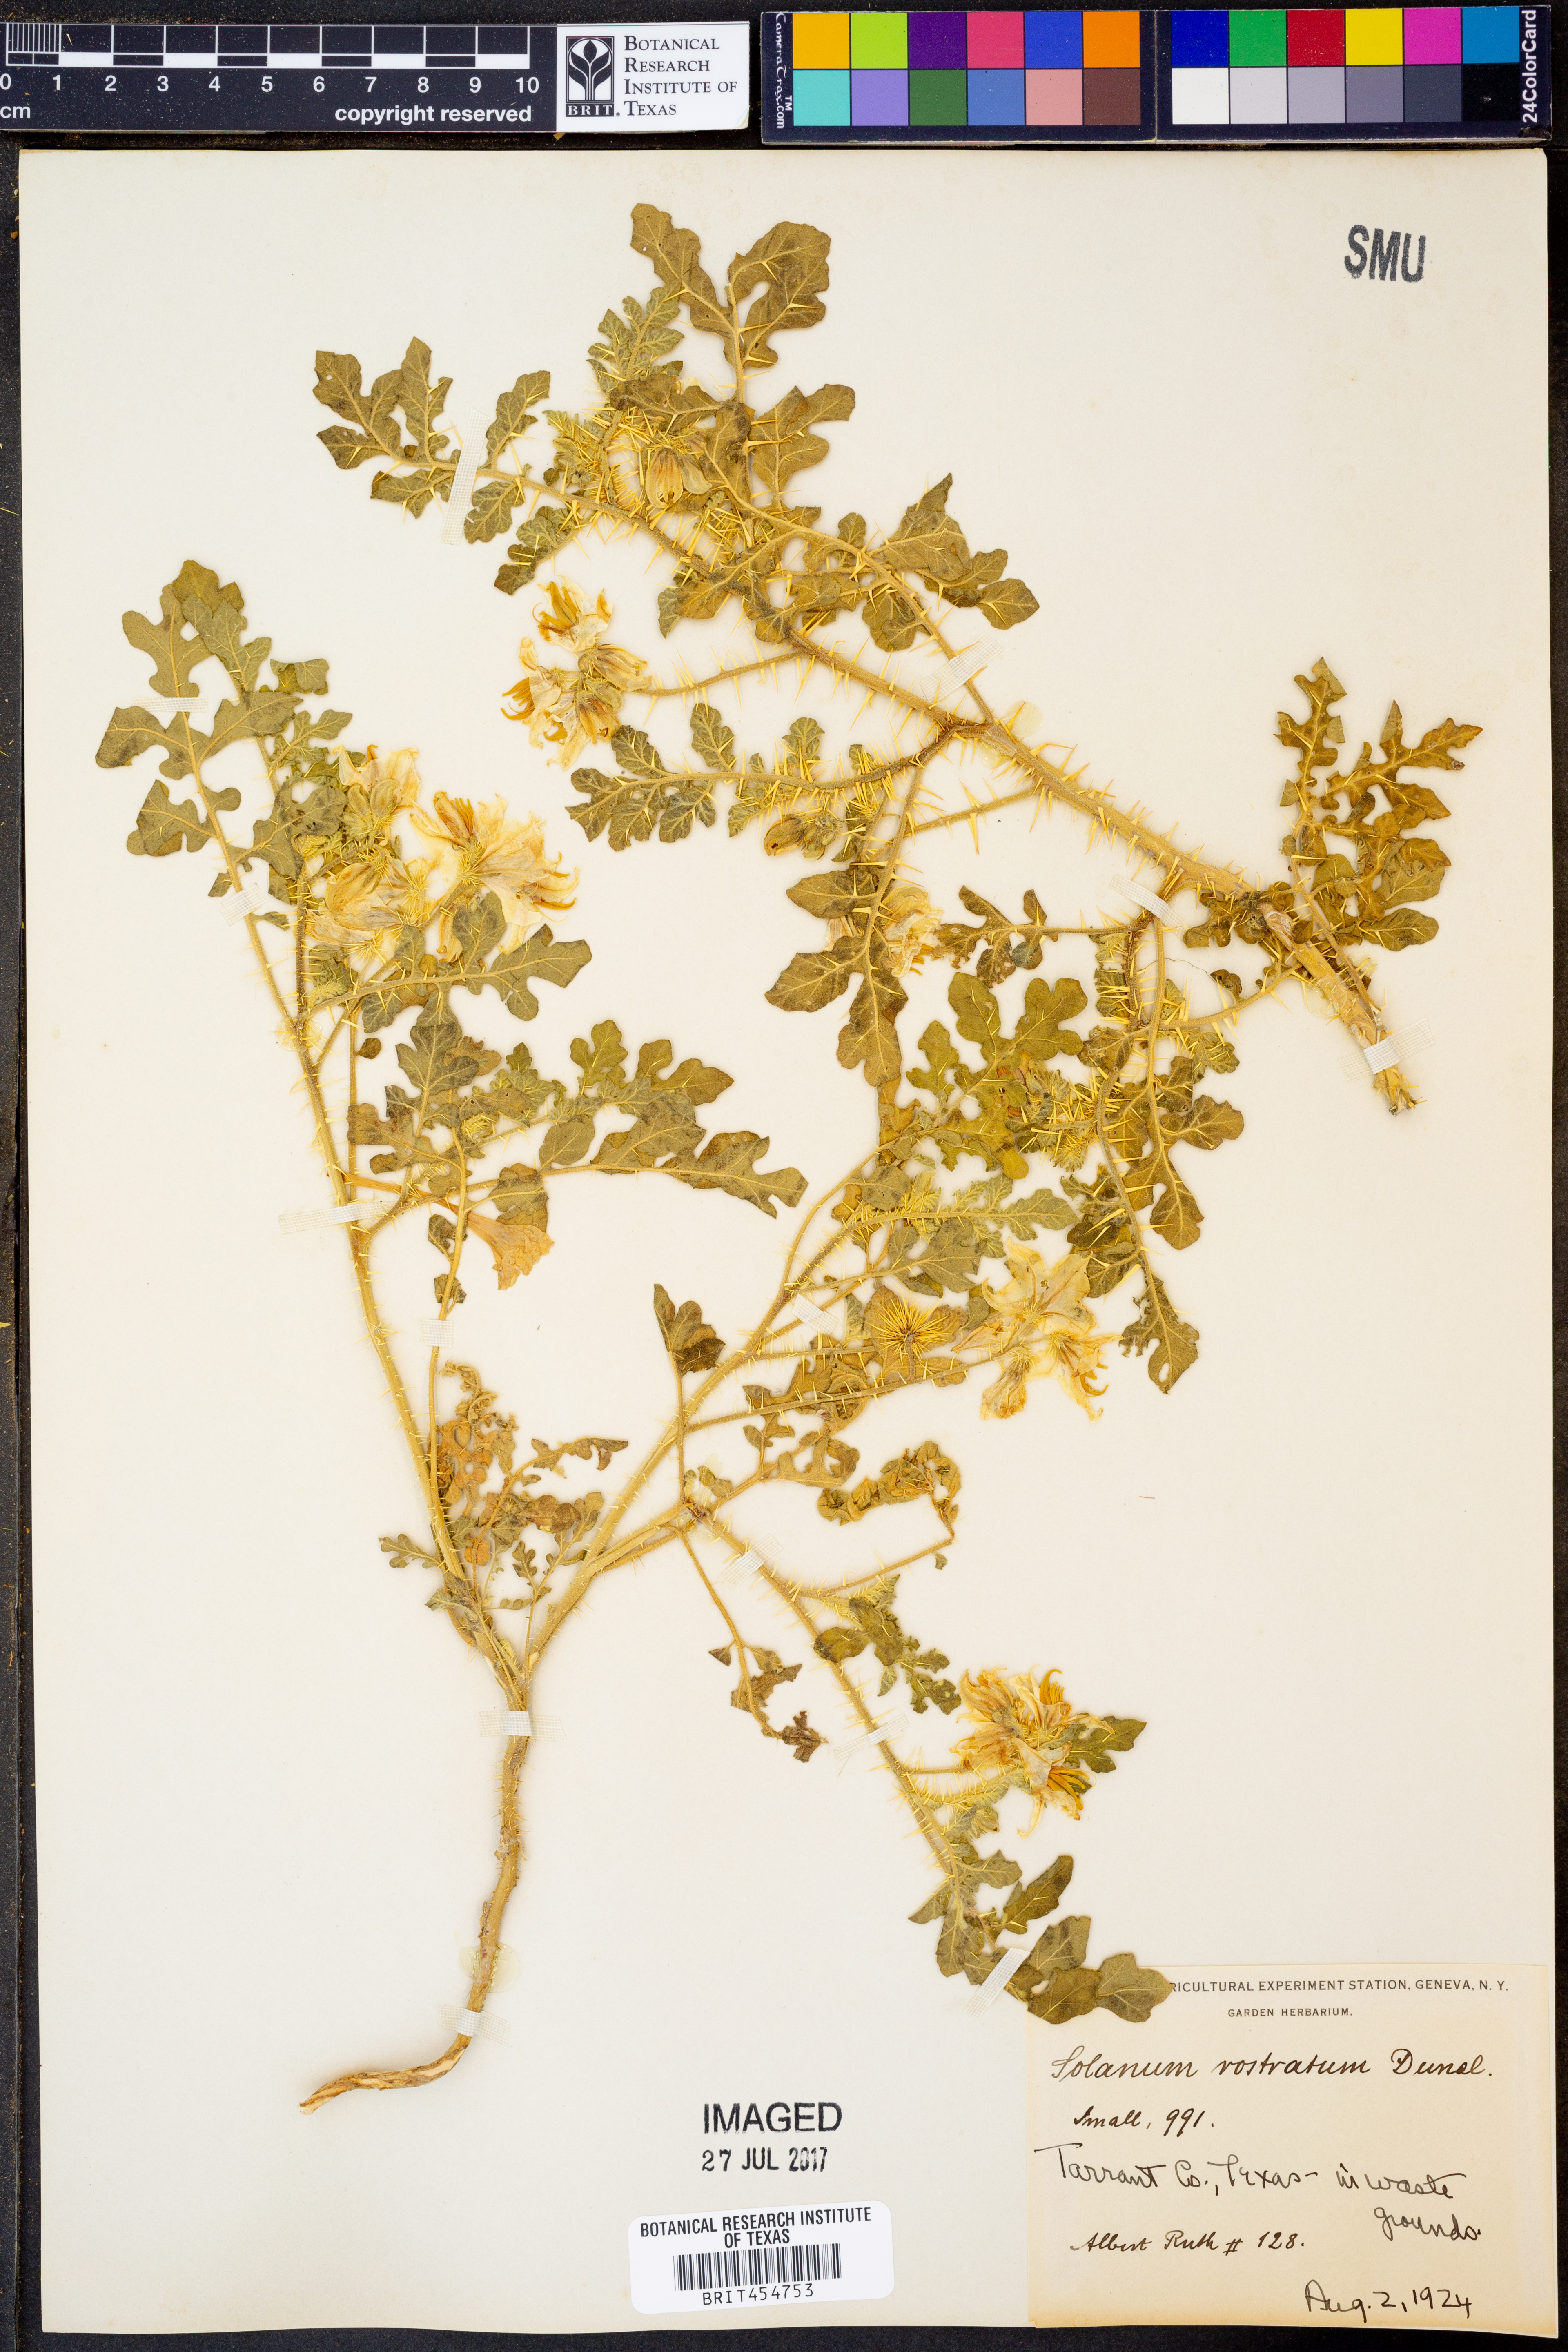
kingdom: Plantae
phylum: Tracheophyta
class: Magnoliopsida
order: Solanales
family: Solanaceae
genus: Solanum
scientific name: Solanum angustifolium
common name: Buffalobur nightshade
